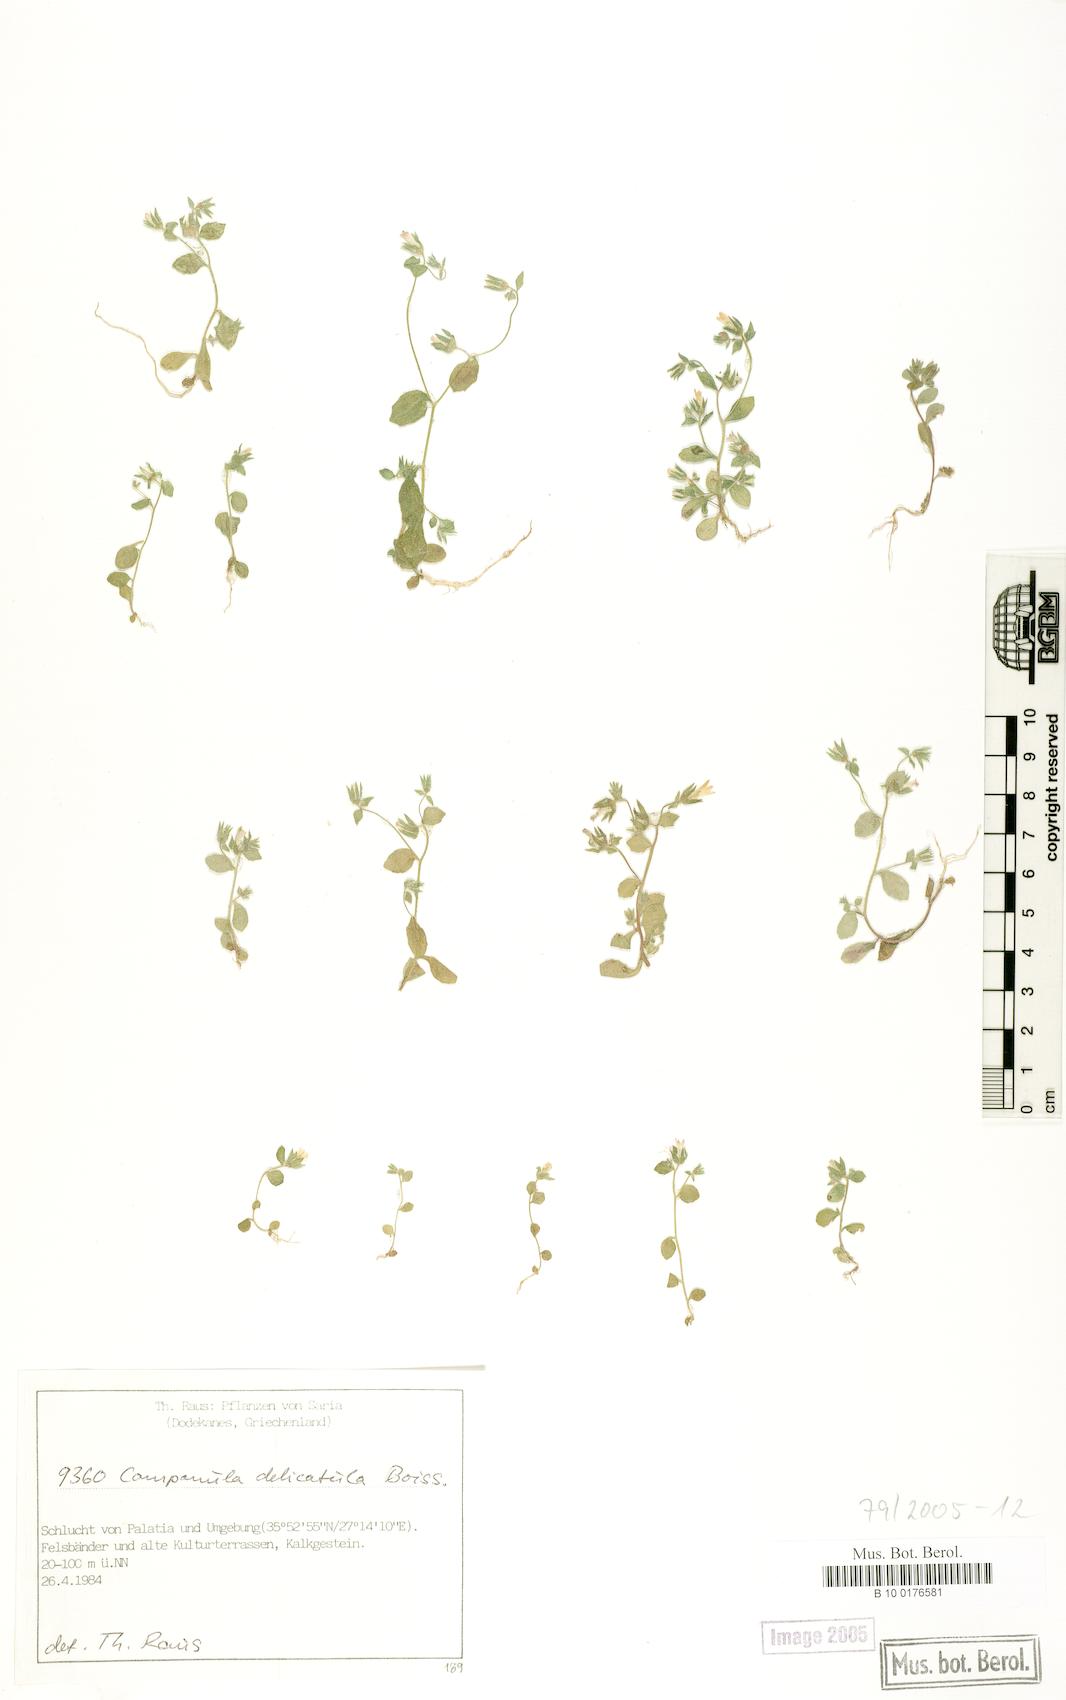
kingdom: Plantae
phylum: Tracheophyta
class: Magnoliopsida
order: Asterales
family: Campanulaceae
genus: Campanula
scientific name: Campanula delicatula
